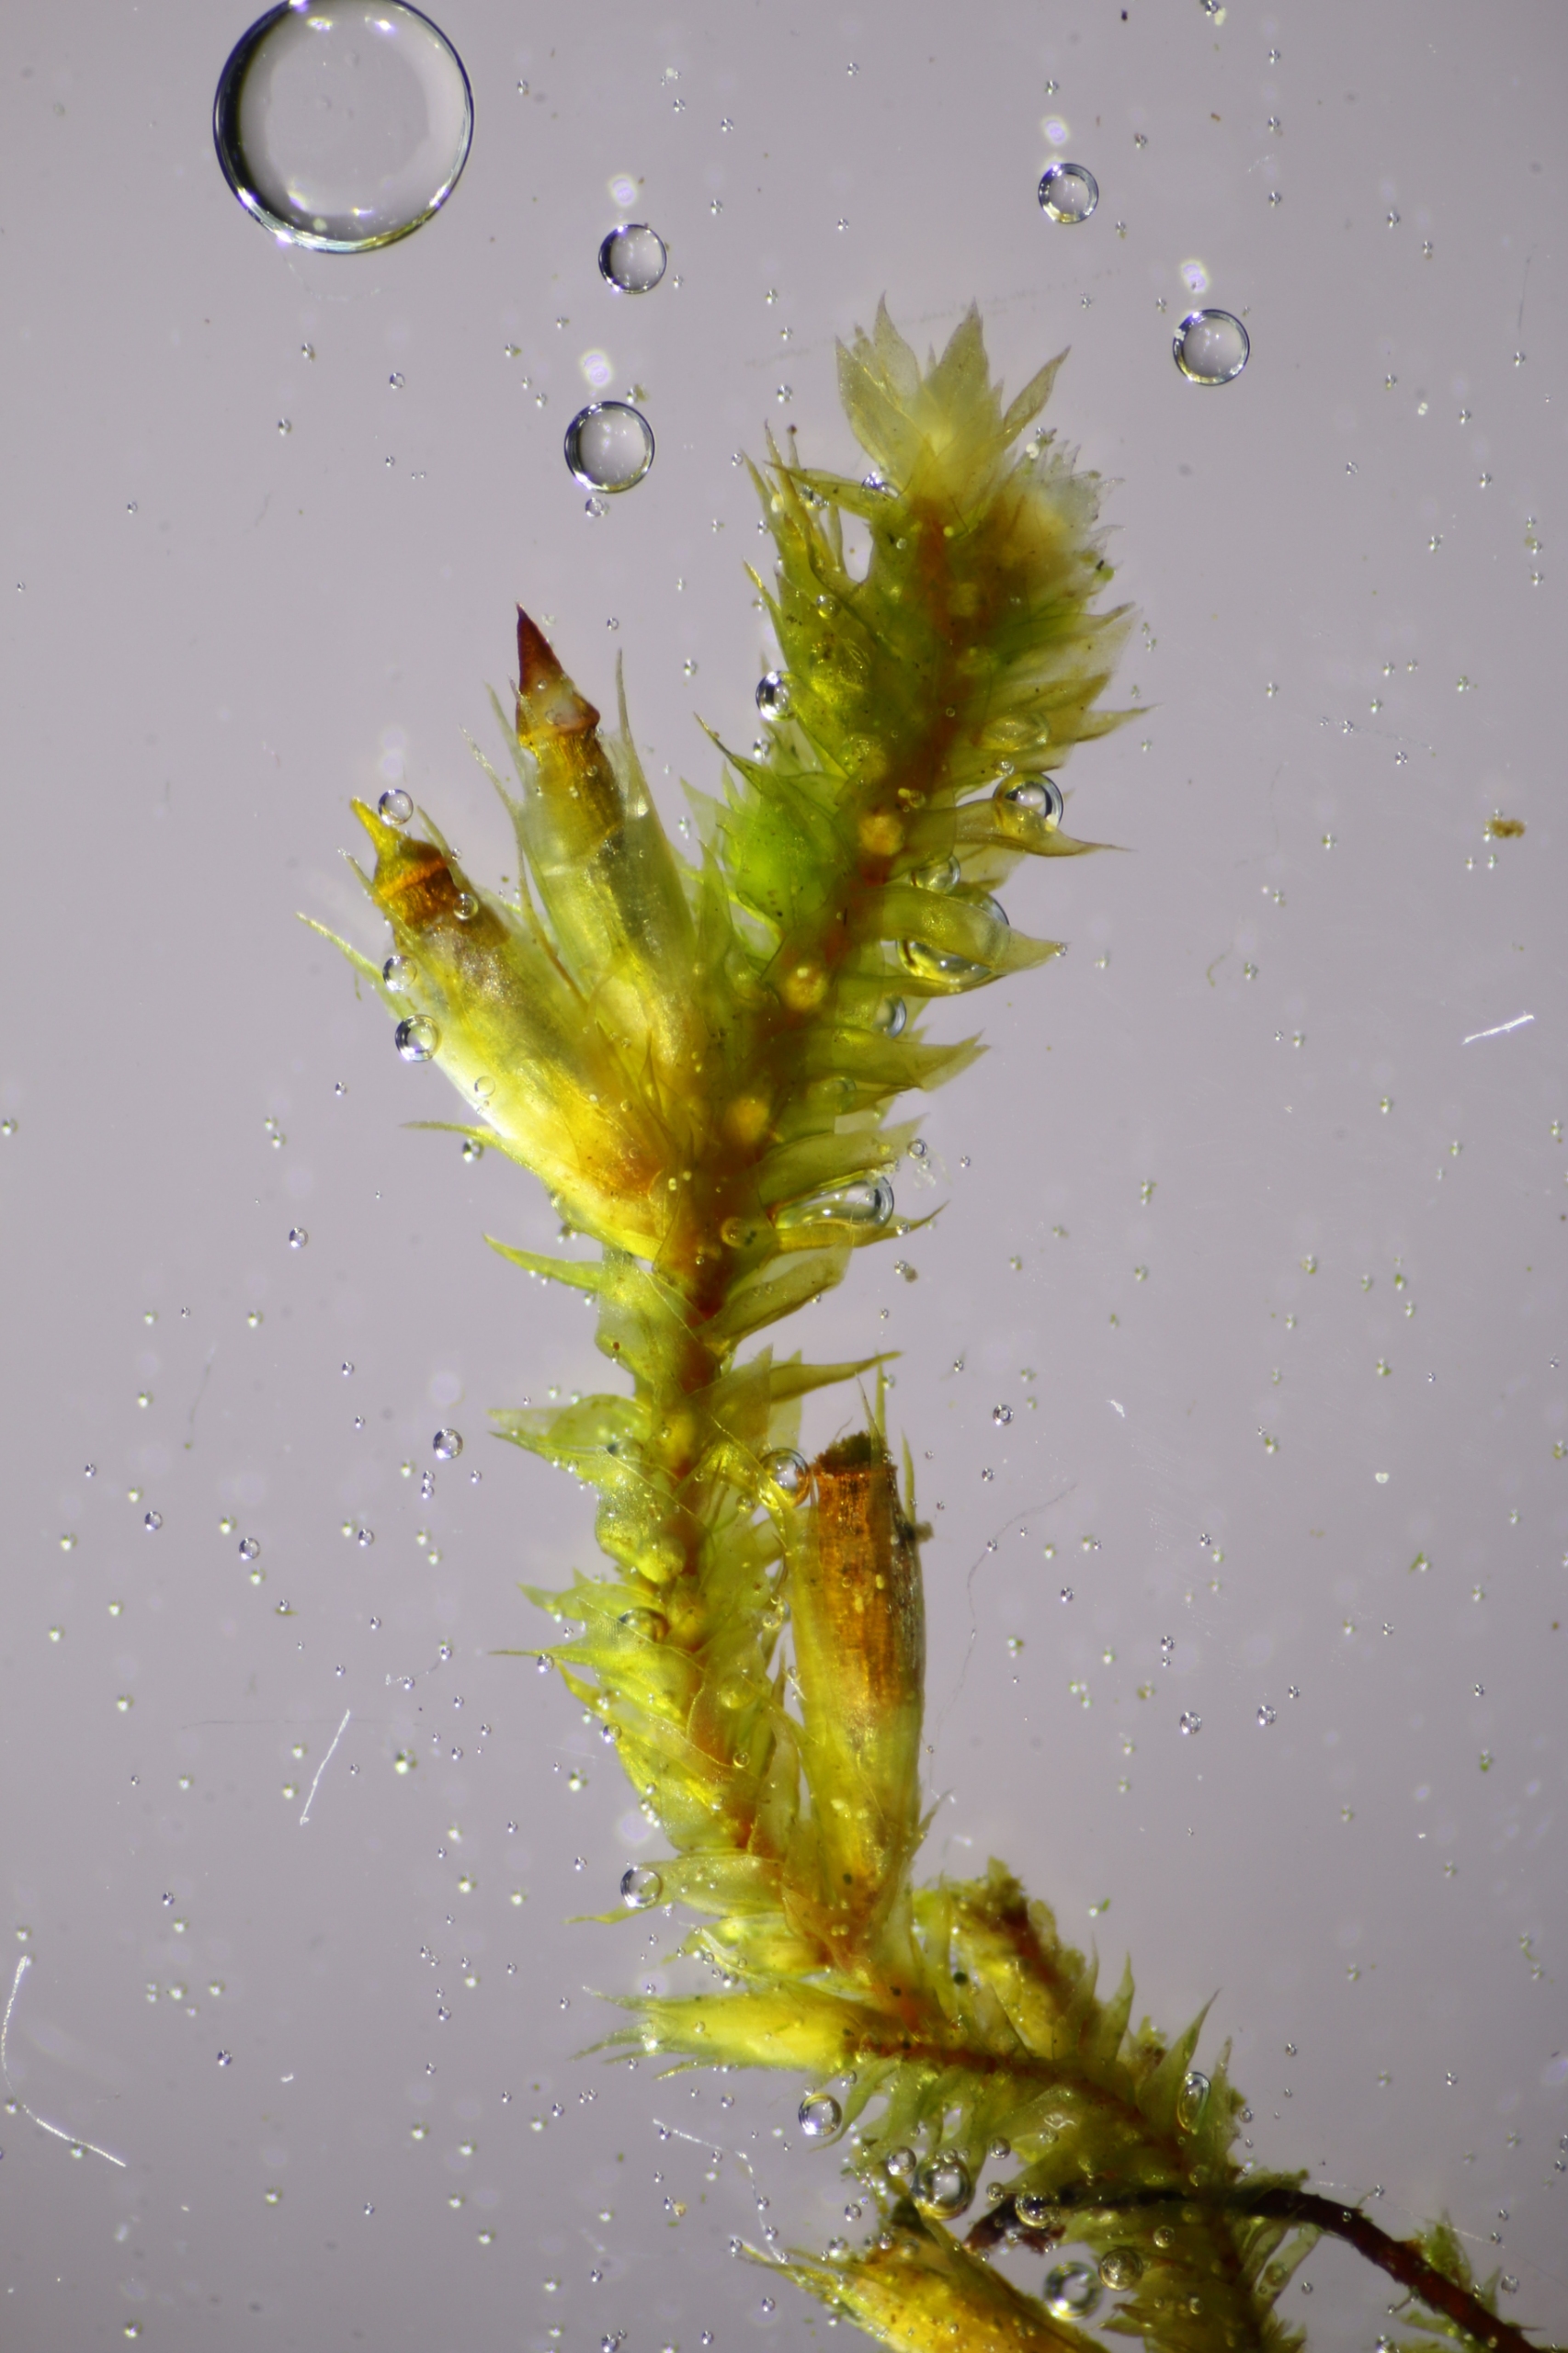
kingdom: Plantae
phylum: Bryophyta
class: Bryopsida
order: Hypnales
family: Cryphaeaceae
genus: Cryphaea
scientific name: Cryphaea heteromalla
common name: Bark-dækmos
